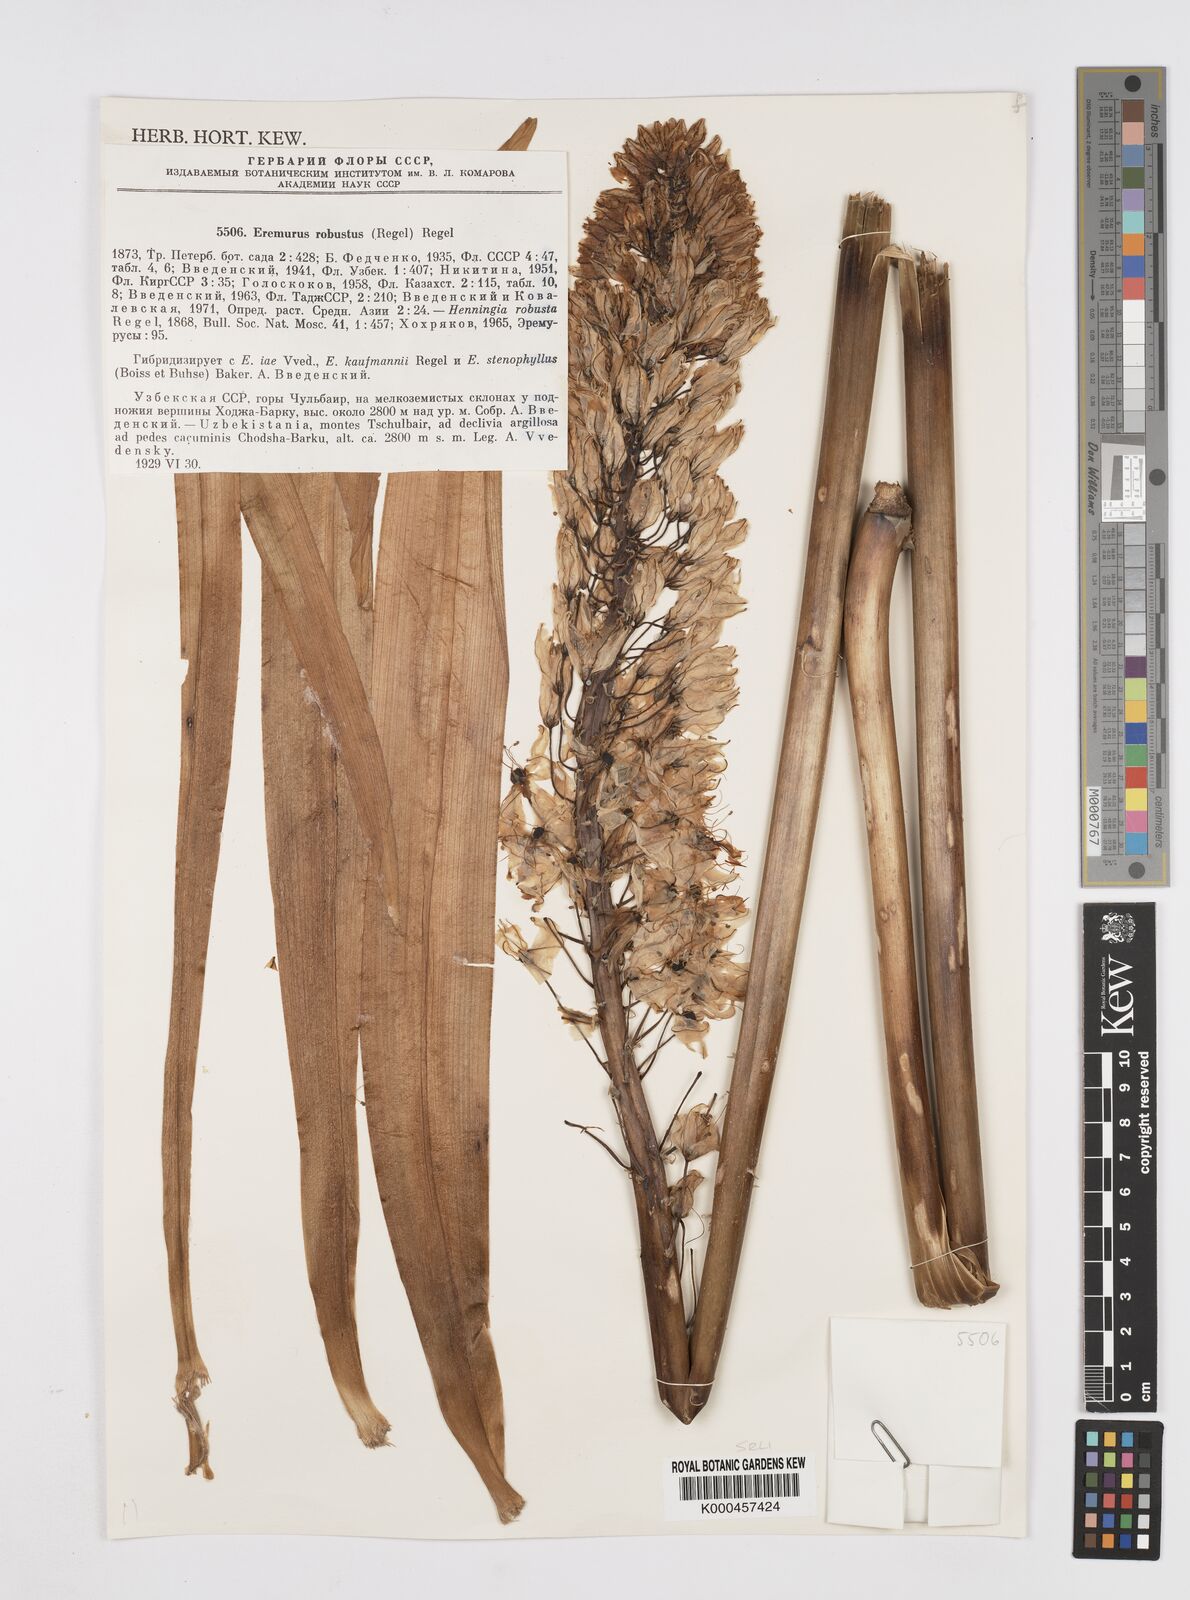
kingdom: Plantae
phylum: Tracheophyta
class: Liliopsida
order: Asparagales
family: Asphodelaceae
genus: Eremurus
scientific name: Eremurus robustus
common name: Foxtail lily
